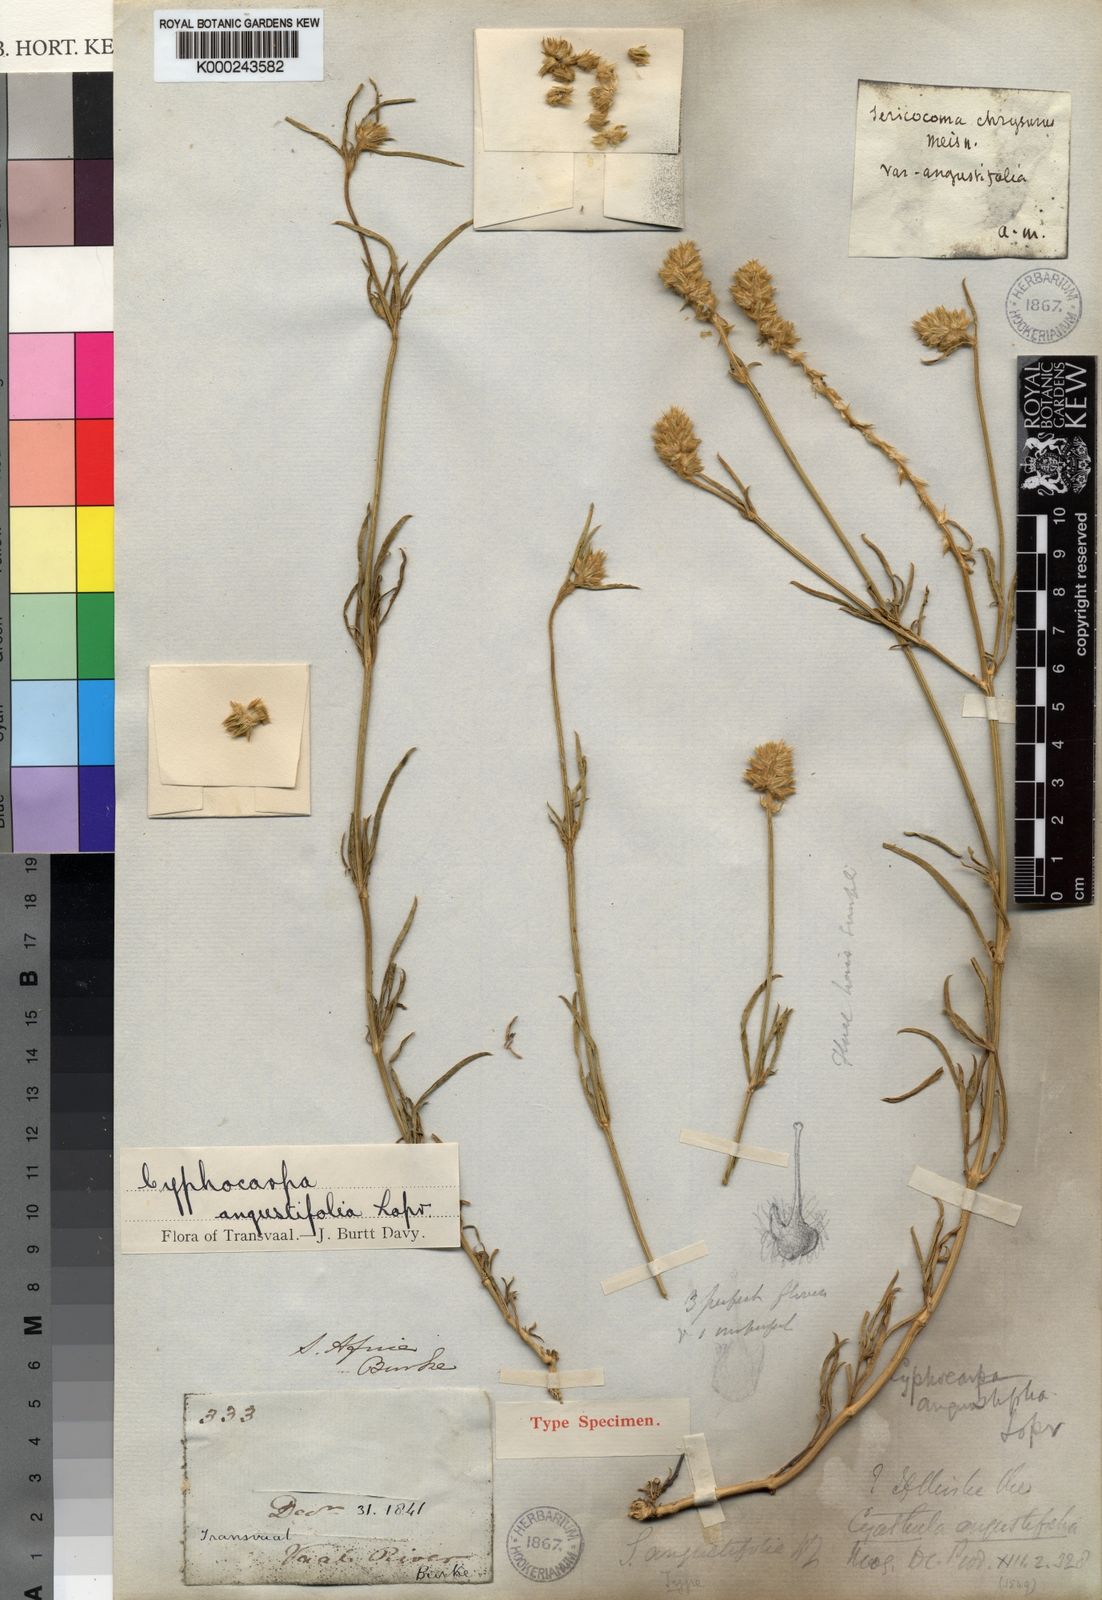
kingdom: Plantae
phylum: Tracheophyta
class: Magnoliopsida
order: Caryophyllales
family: Amaranthaceae
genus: Kyphocarpa
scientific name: Kyphocarpa
